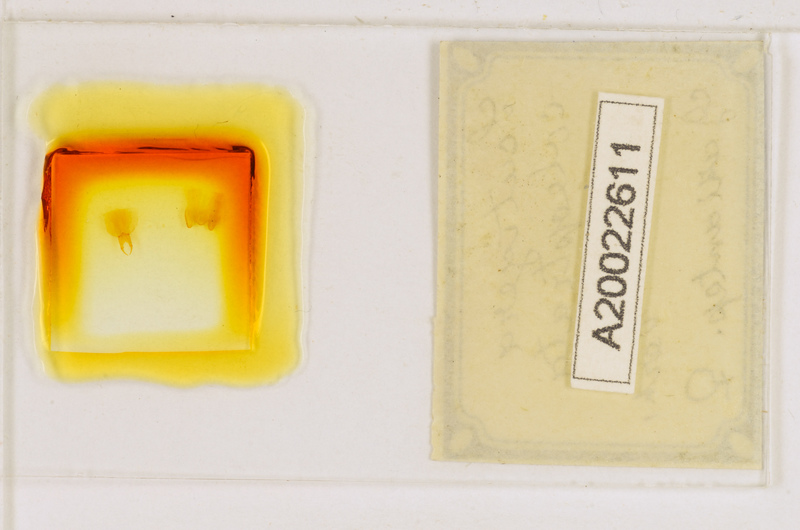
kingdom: Animalia
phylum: Arthropoda
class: Chilopoda
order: Scutigeromorpha
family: Scutigeridae
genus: Scutigera
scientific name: Scutigera coleoptrata
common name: House centipede
